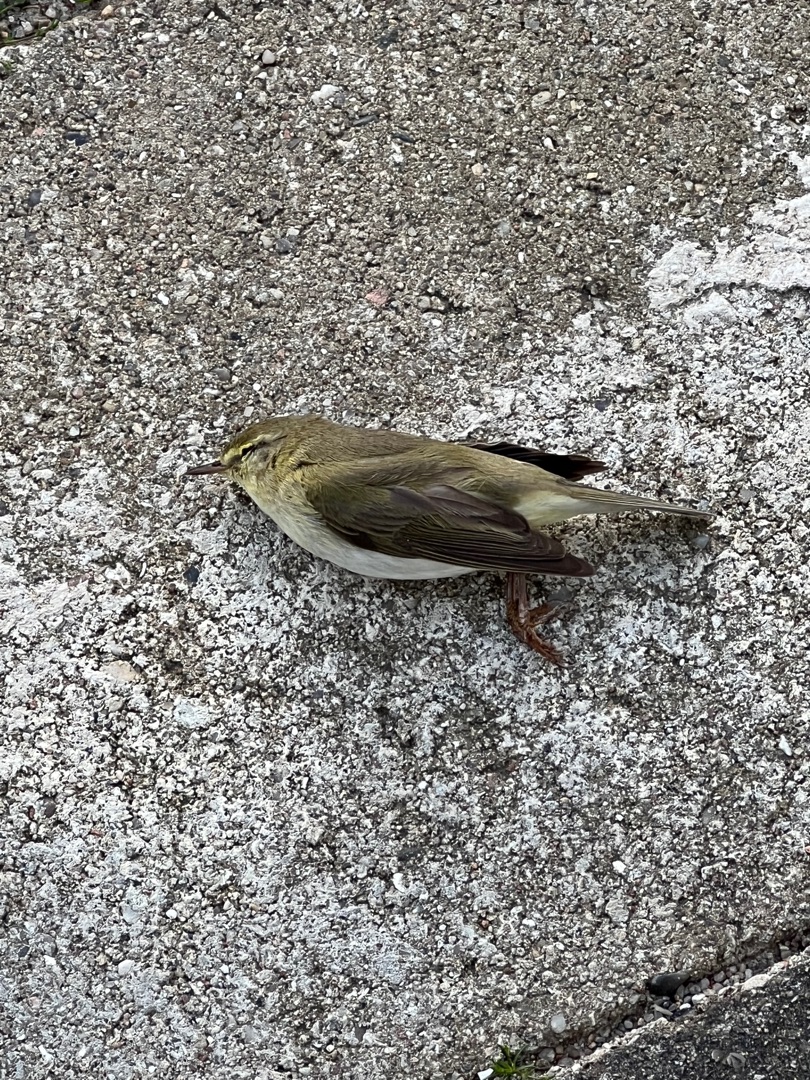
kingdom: Animalia
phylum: Chordata
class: Aves
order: Passeriformes
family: Phylloscopidae
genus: Phylloscopus
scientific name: Phylloscopus trochilus
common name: Løvsanger
